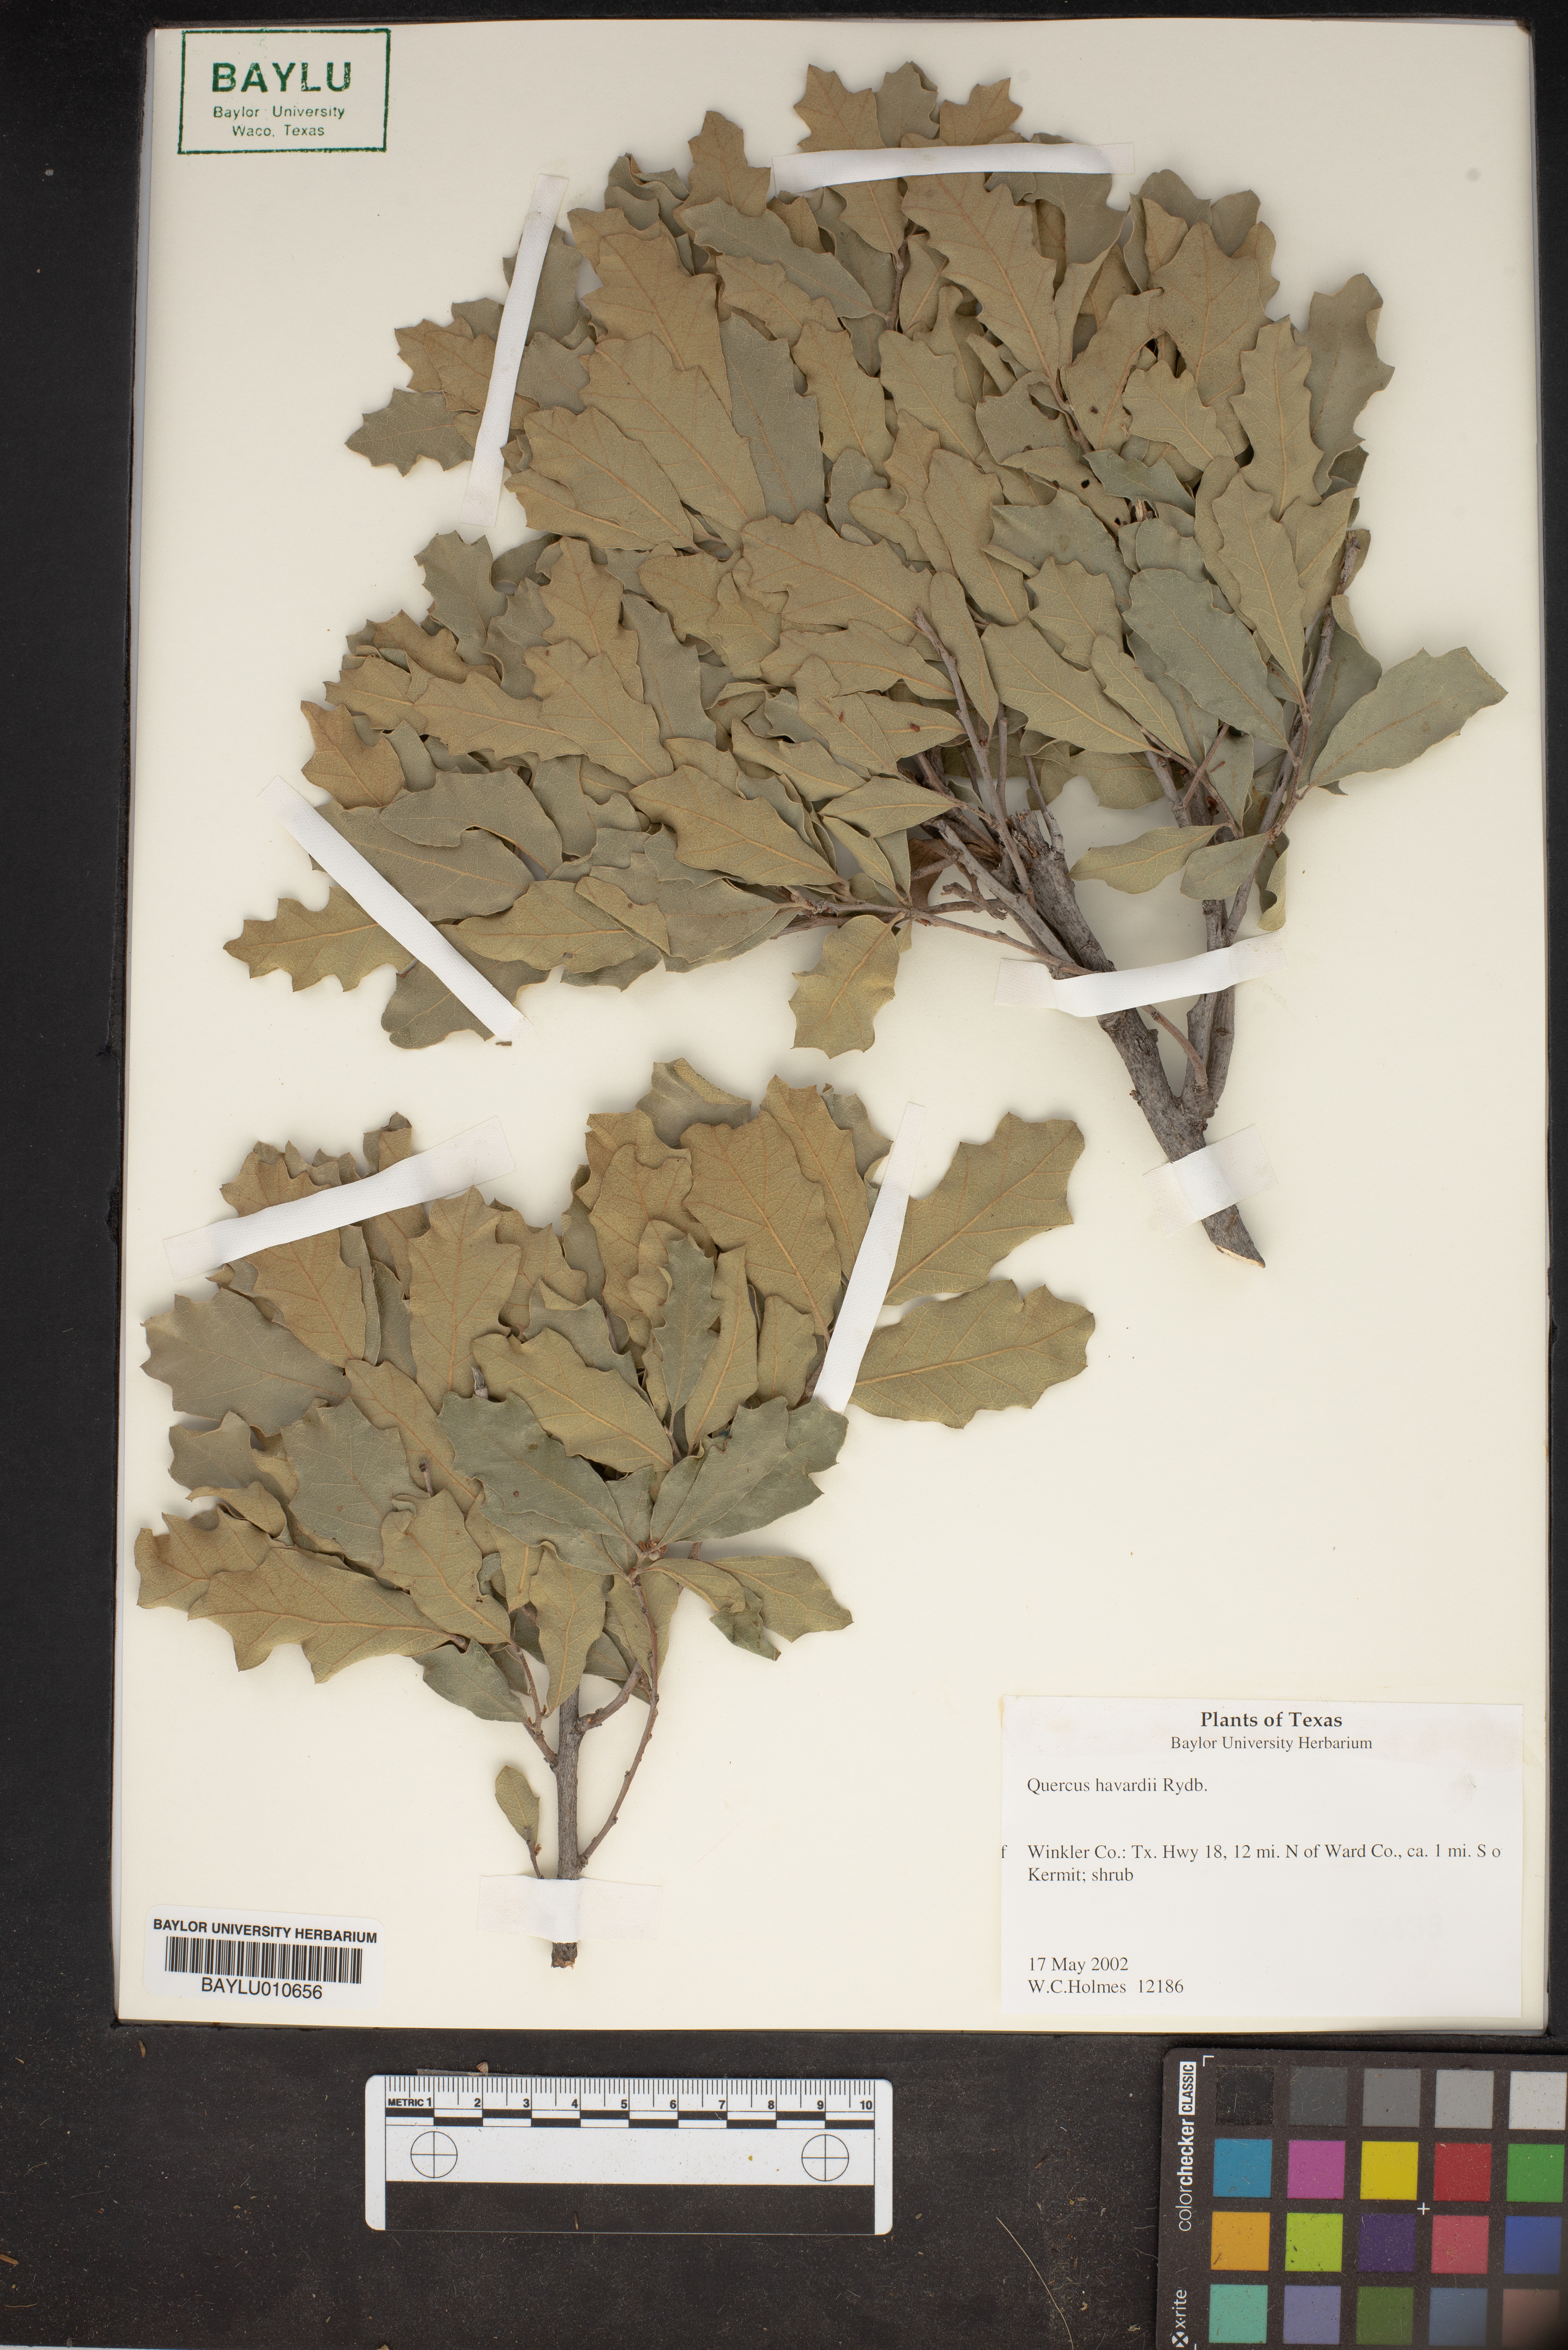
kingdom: Plantae
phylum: Tracheophyta
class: Magnoliopsida
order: Fagales
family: Fagaceae
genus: Quercus
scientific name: Quercus havardii
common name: Shinnery oak
